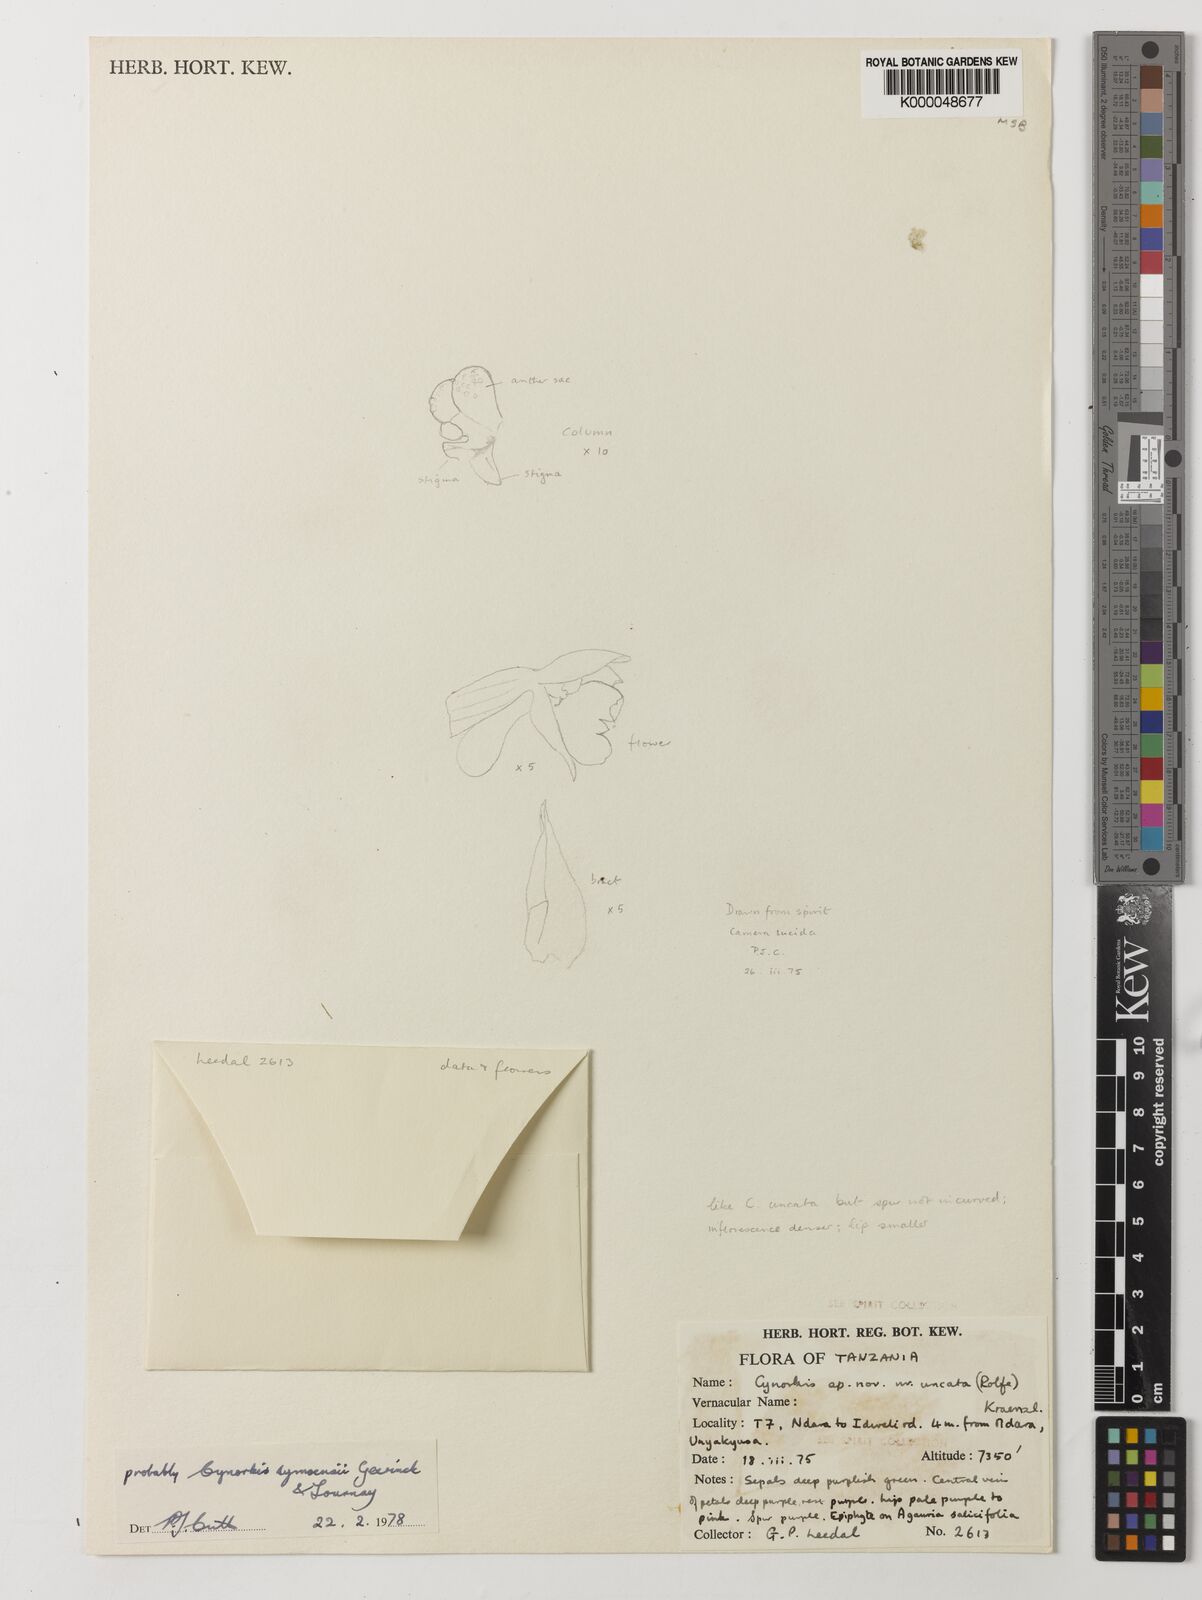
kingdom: Plantae
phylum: Tracheophyta
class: Liliopsida
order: Asparagales
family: Orchidaceae
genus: Cynorkis
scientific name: Cynorkis symoensii
